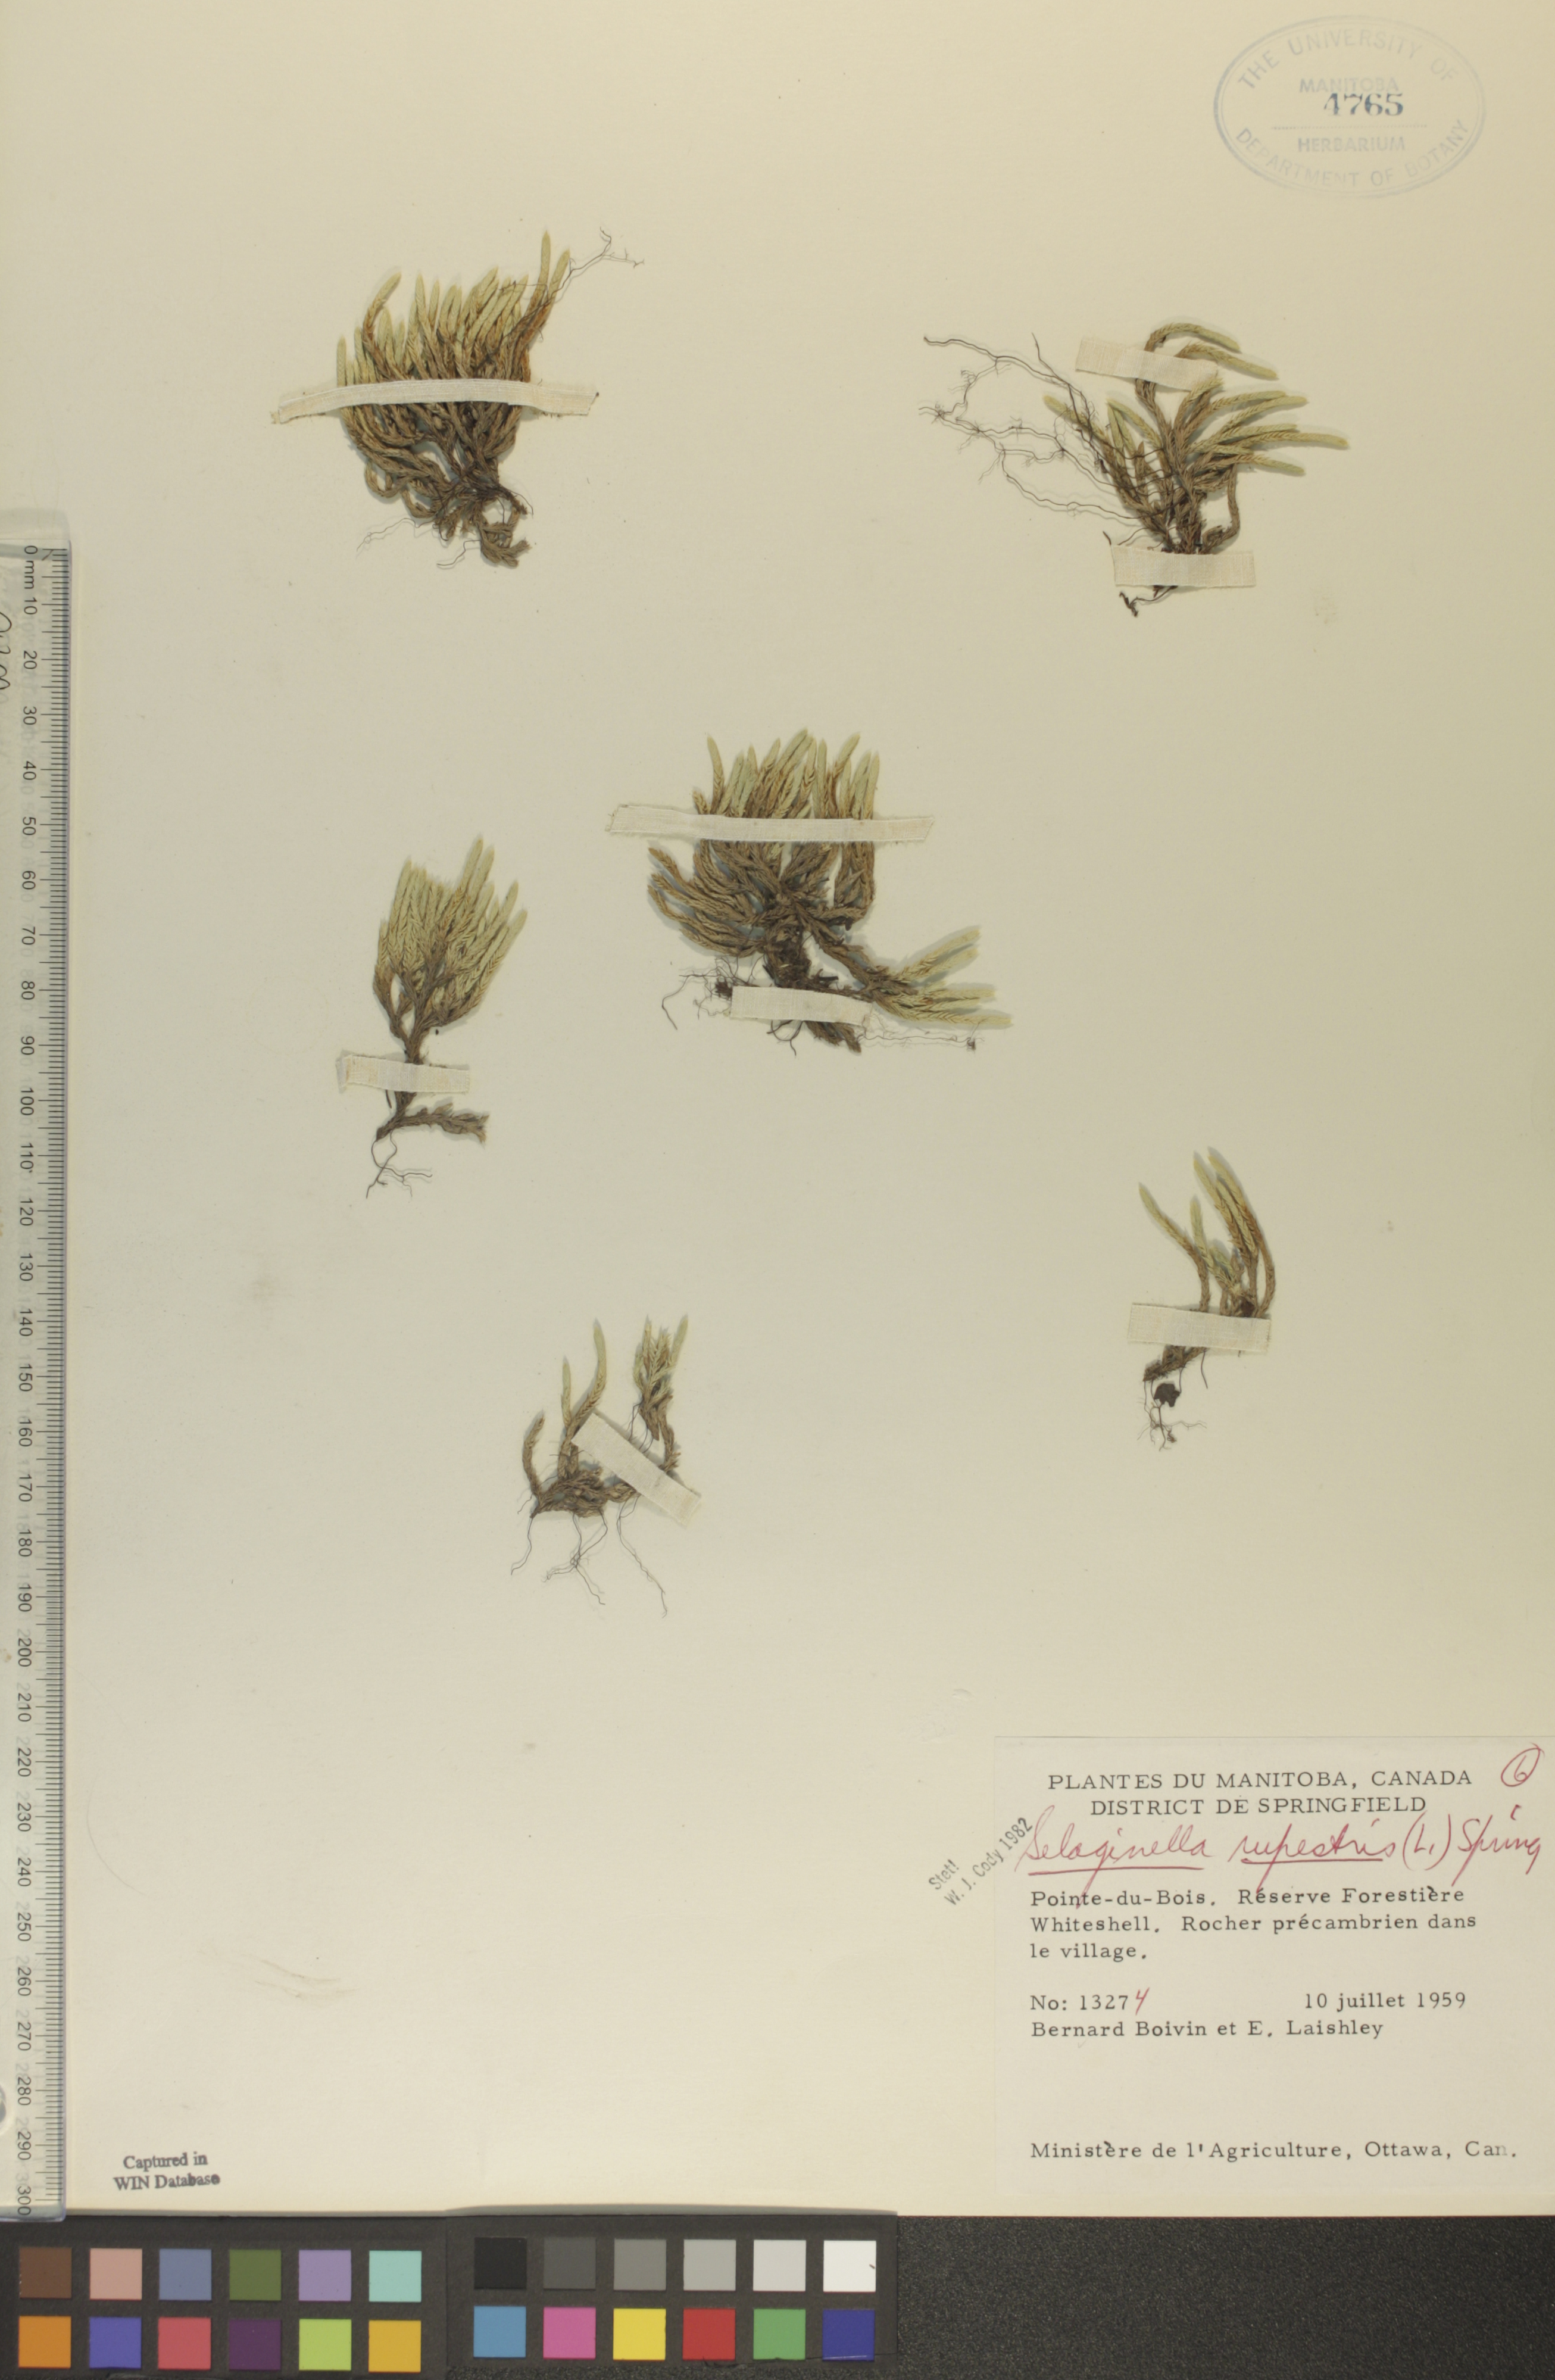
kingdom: Plantae
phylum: Tracheophyta
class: Lycopodiopsida
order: Selaginellales
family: Selaginellaceae
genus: Selaginella
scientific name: Selaginella rupestris
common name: Dwarf spikemoss
